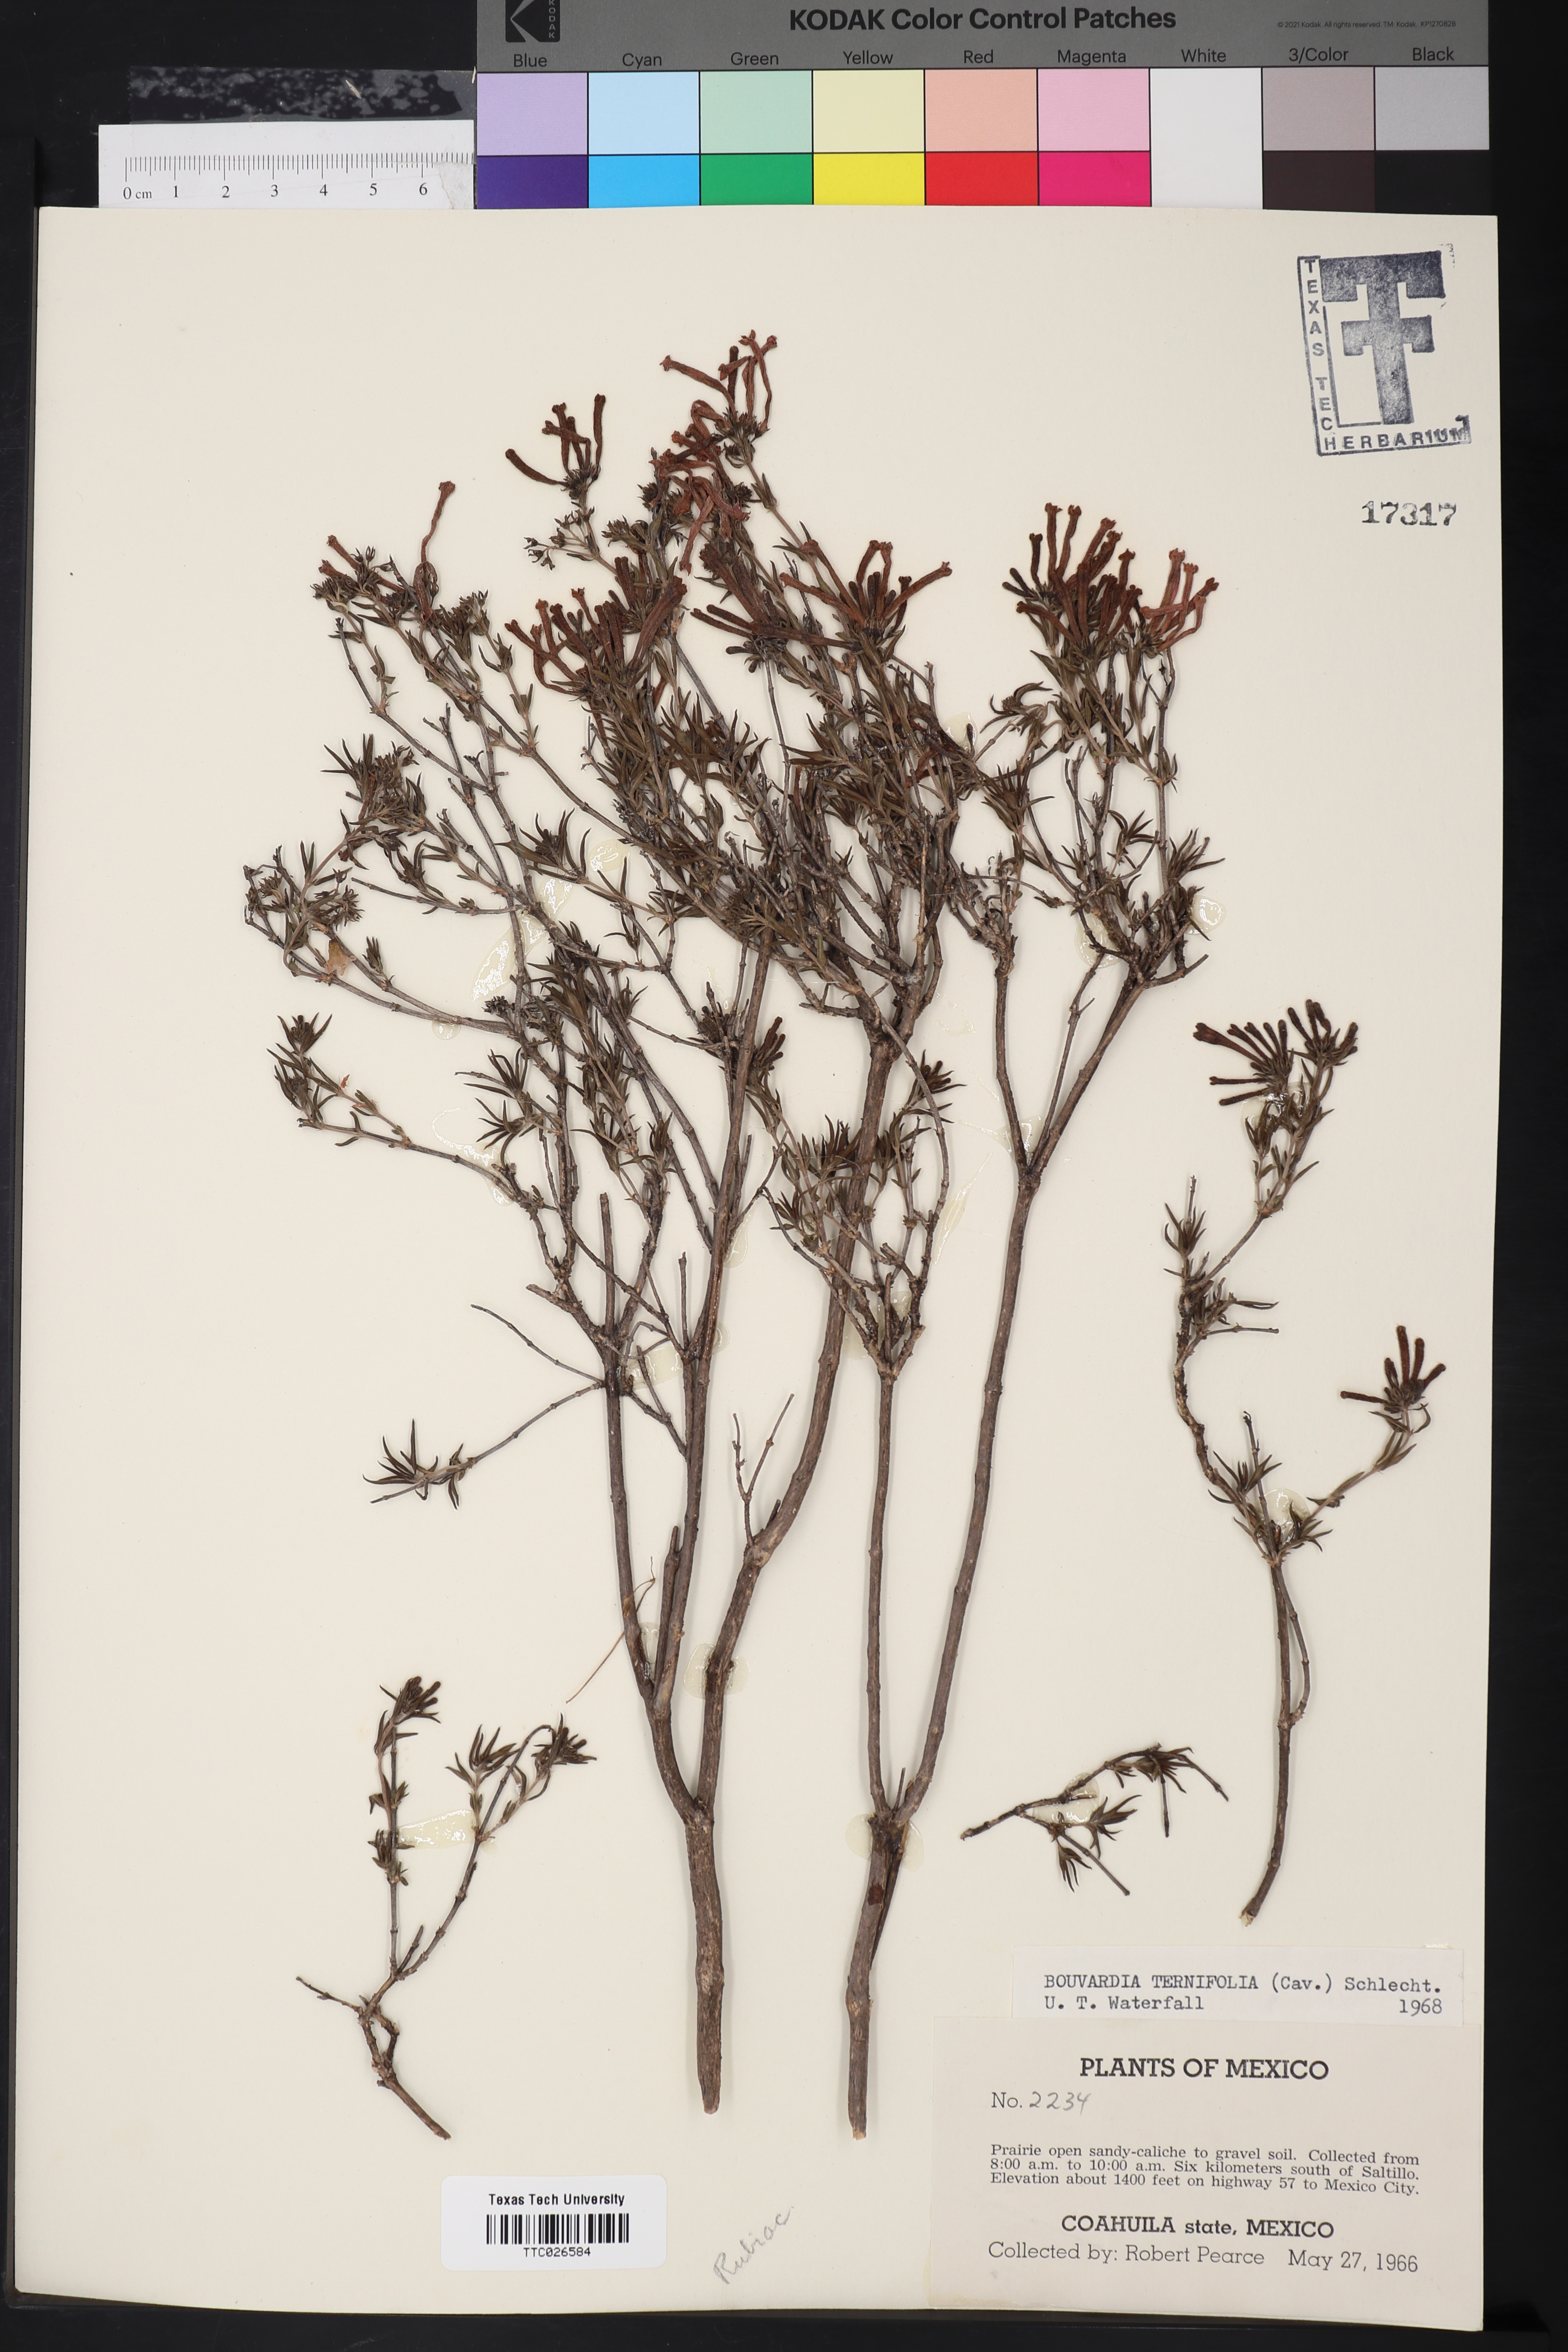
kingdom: Plantae
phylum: Tracheophyta
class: Magnoliopsida
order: Gentianales
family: Rubiaceae
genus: Bouvardia
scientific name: Bouvardia ternifolia
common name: Scarlet bouvardia
